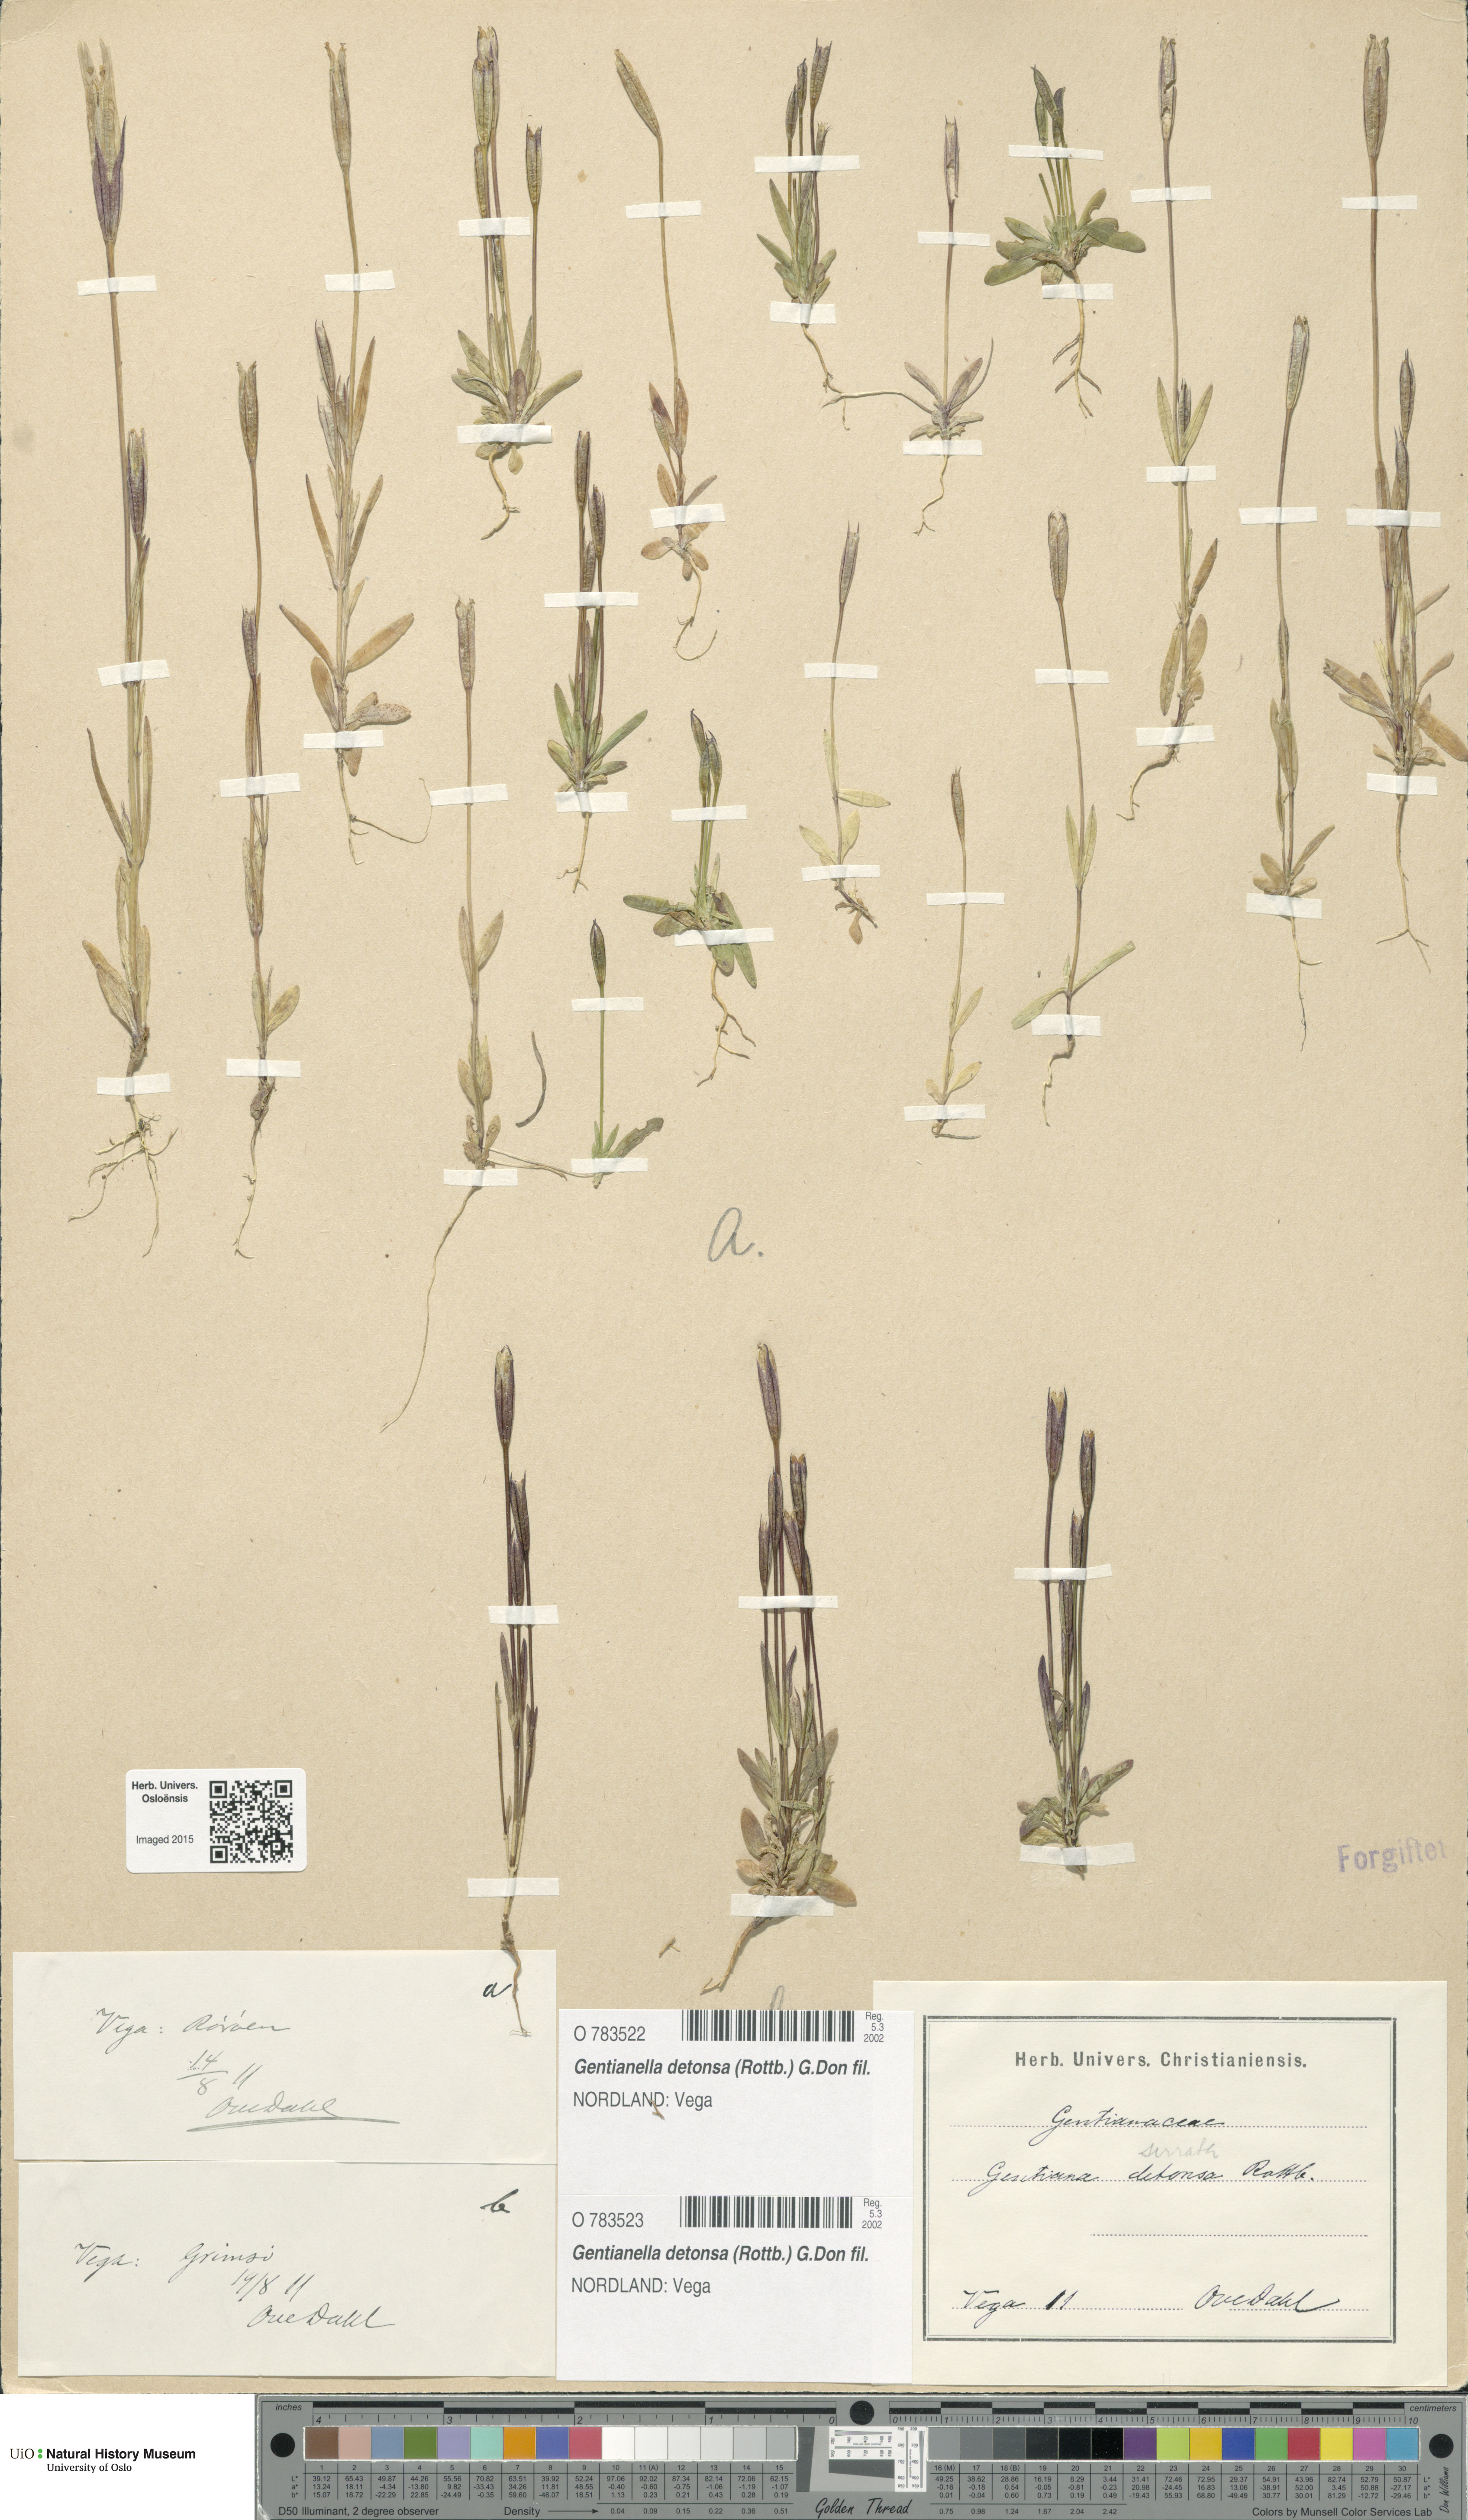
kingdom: Plantae
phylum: Tracheophyta
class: Magnoliopsida
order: Gentianales
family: Gentianaceae
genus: Gentianopsis
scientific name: Gentianopsis detonsa
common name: Fringed-gentian
